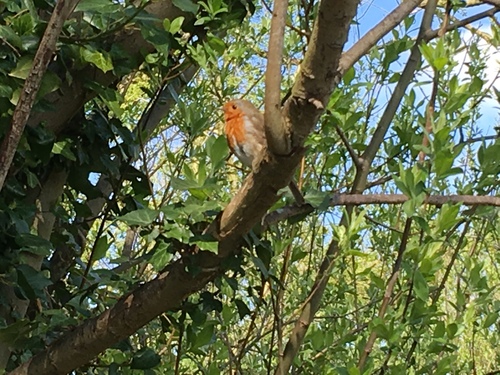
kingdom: Animalia
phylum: Chordata
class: Aves
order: Passeriformes
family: Muscicapidae
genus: Erithacus
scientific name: Erithacus rubecula
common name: European robin
